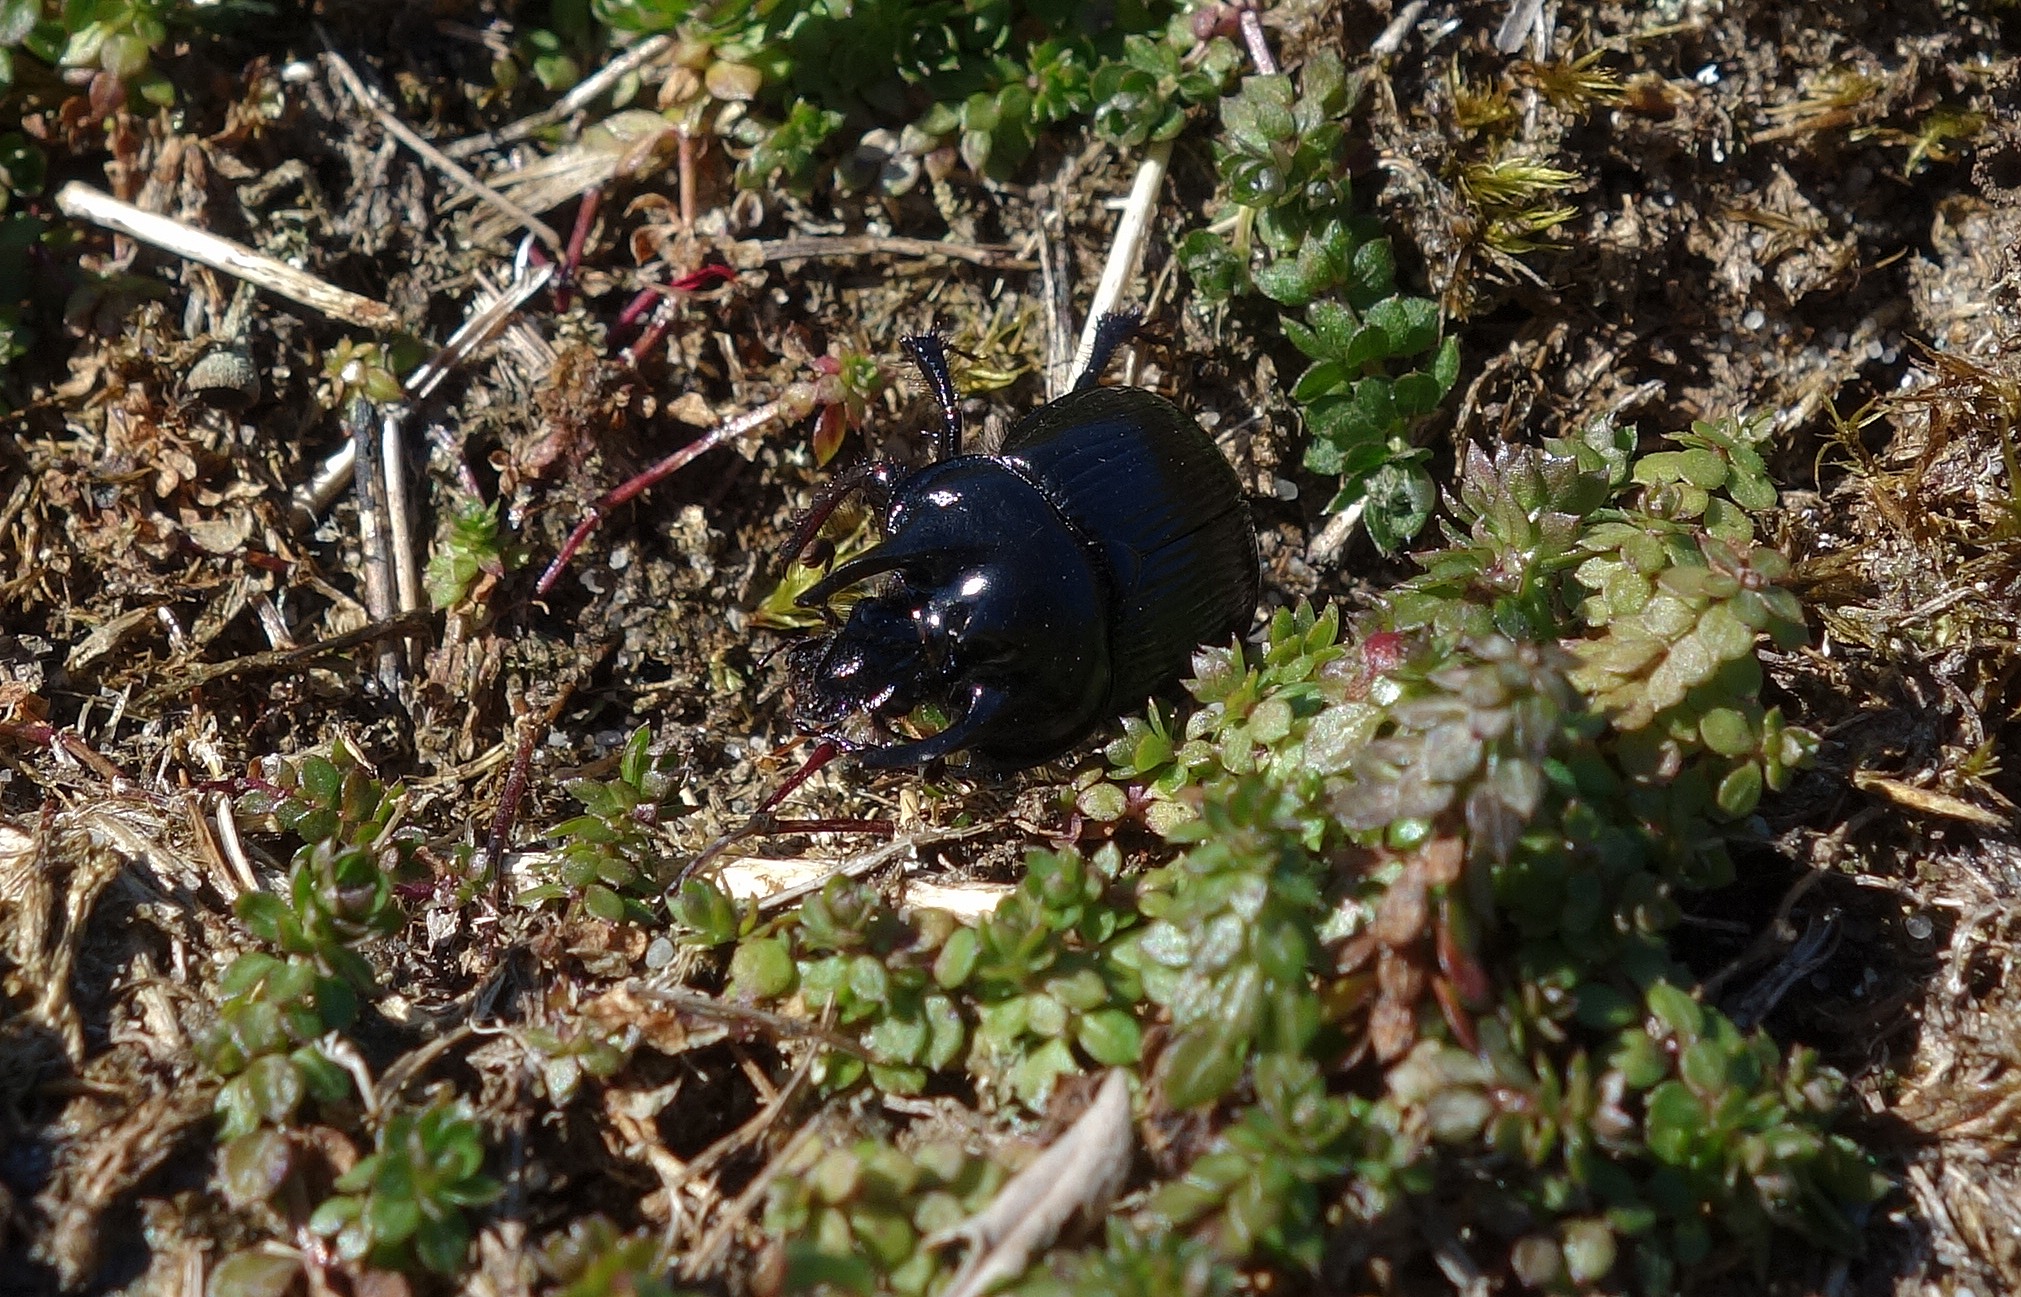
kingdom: Animalia
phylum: Arthropoda
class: Insecta
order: Coleoptera
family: Geotrupidae
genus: Typhaeus
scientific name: Typhaeus typhoeus
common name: Trehornet skarnbasse
